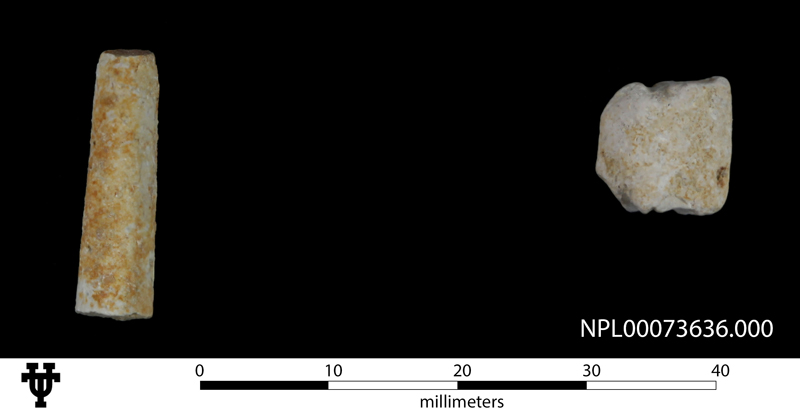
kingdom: Animalia
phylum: Mollusca
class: Cephalopoda
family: Baculitidae
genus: Baculites
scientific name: Baculites
